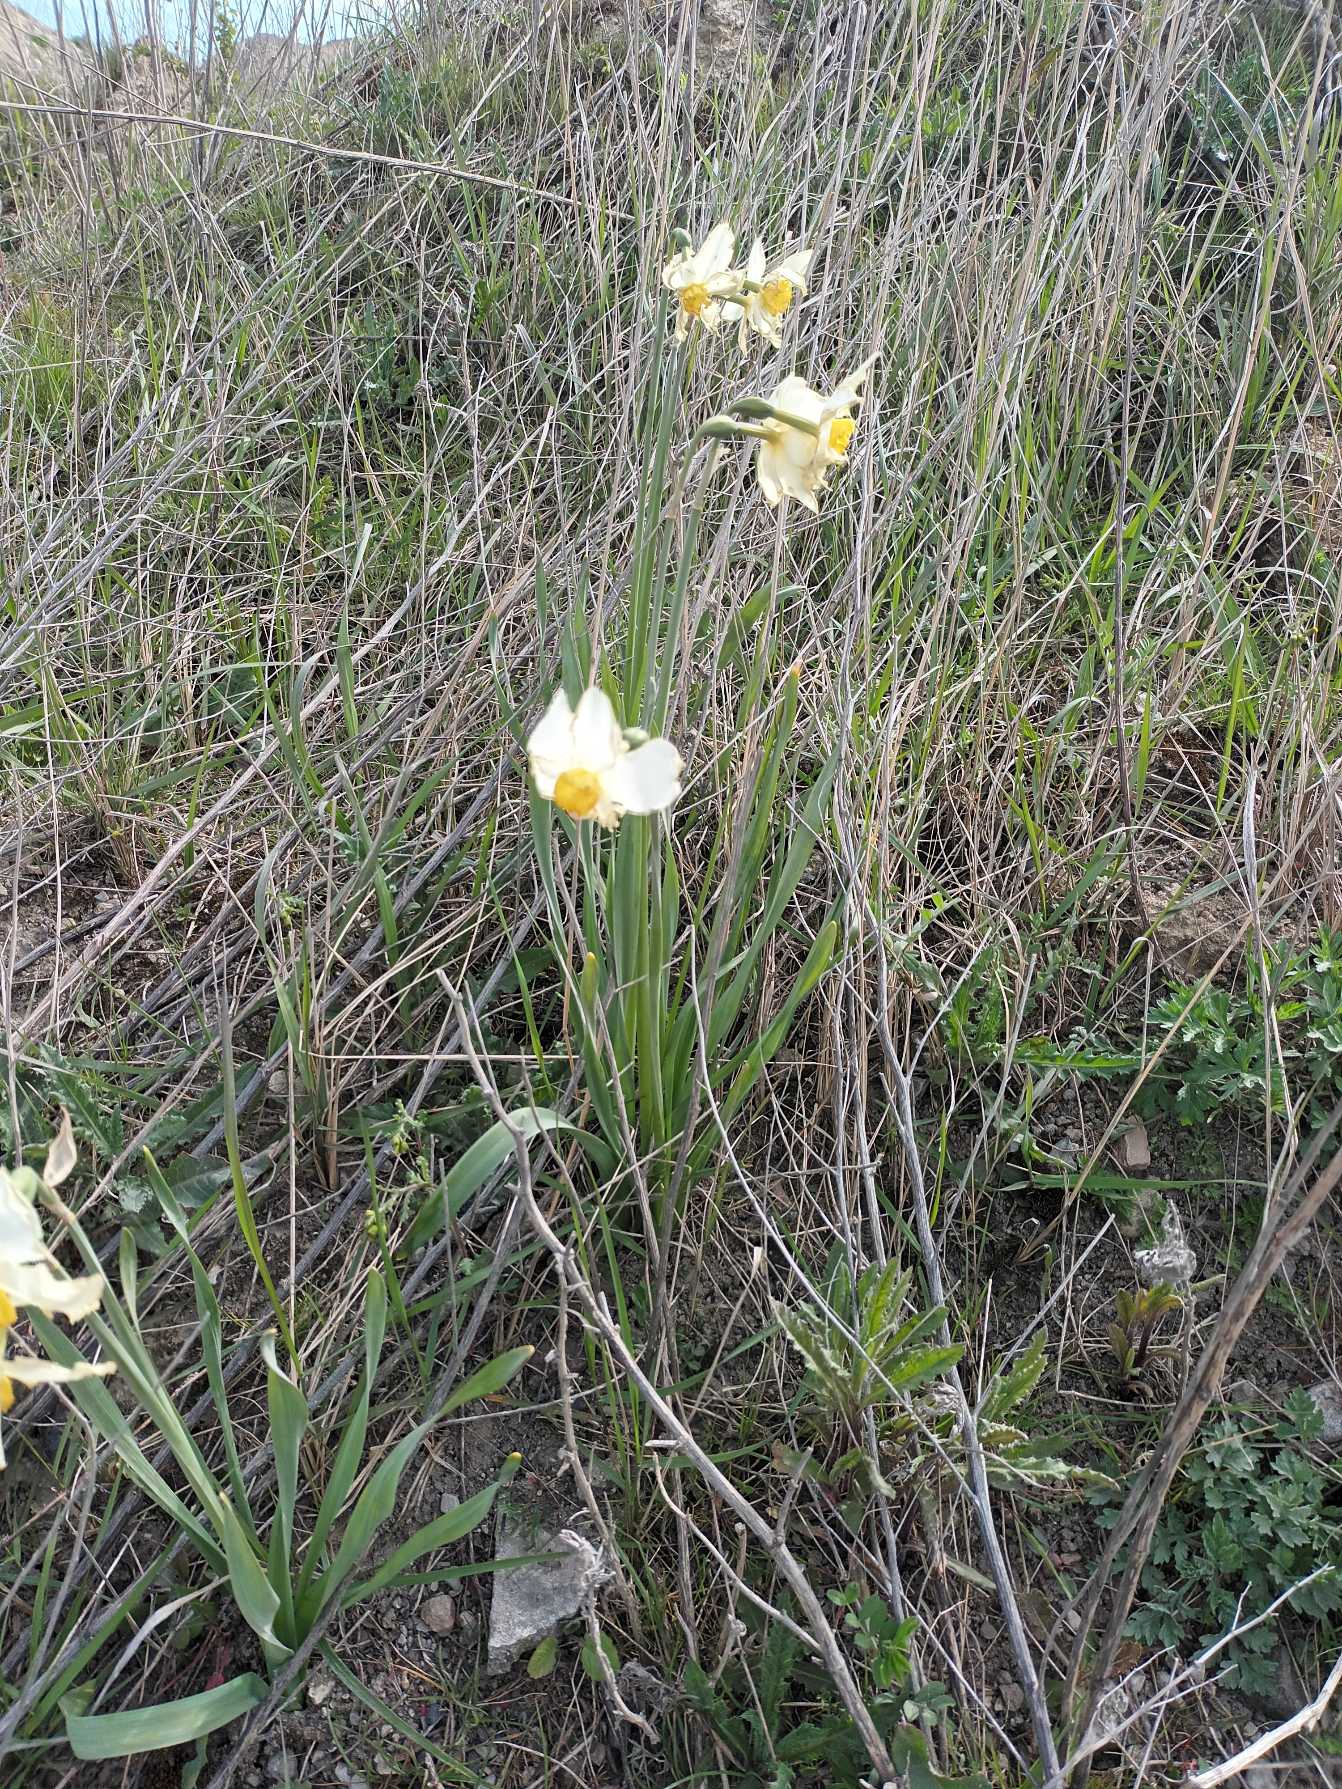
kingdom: Plantae
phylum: Tracheophyta
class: Liliopsida
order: Asparagales
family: Amaryllidaceae
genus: Narcissus
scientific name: Narcissus
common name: Narcisslægten
